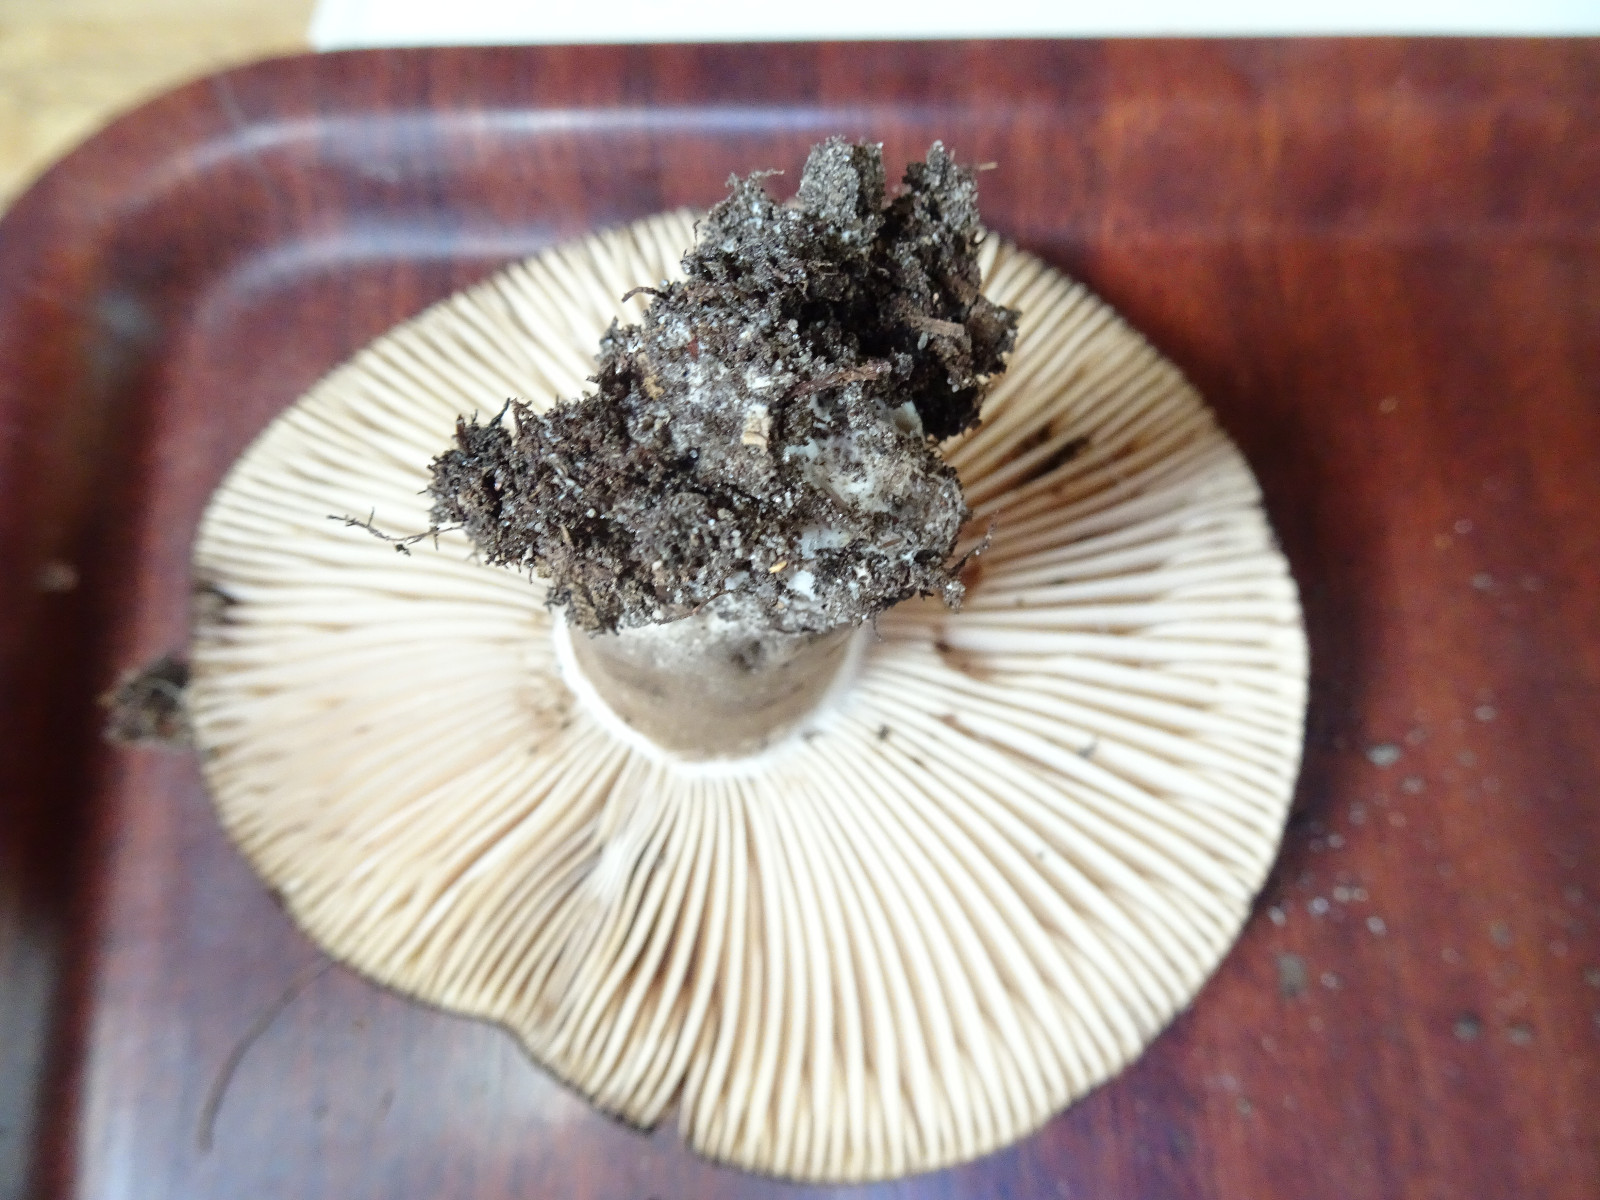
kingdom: Fungi
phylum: Basidiomycota
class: Agaricomycetes
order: Russulales
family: Russulaceae
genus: Russula
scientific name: Russula adusta
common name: sværtende skørhat
